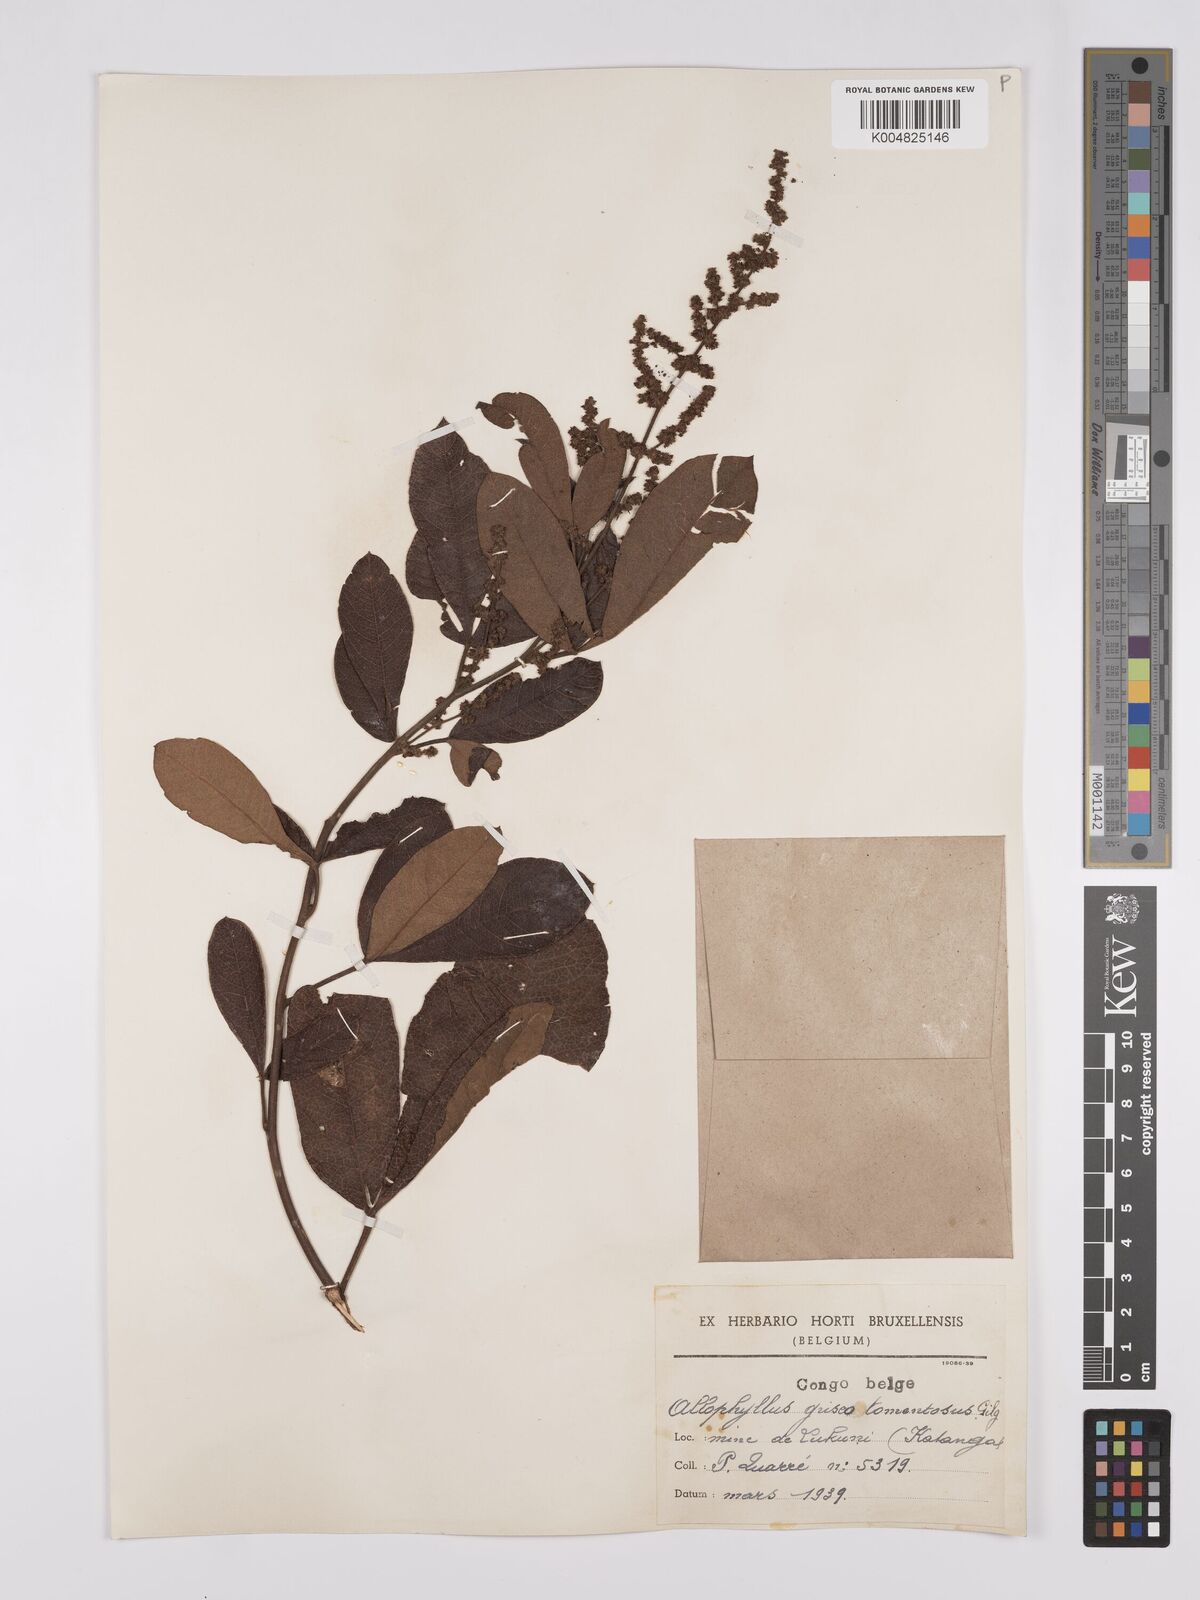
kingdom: Plantae
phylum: Tracheophyta
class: Magnoliopsida
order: Sapindales
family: Anacardiaceae
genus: Searsia
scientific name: Searsia kirkii
